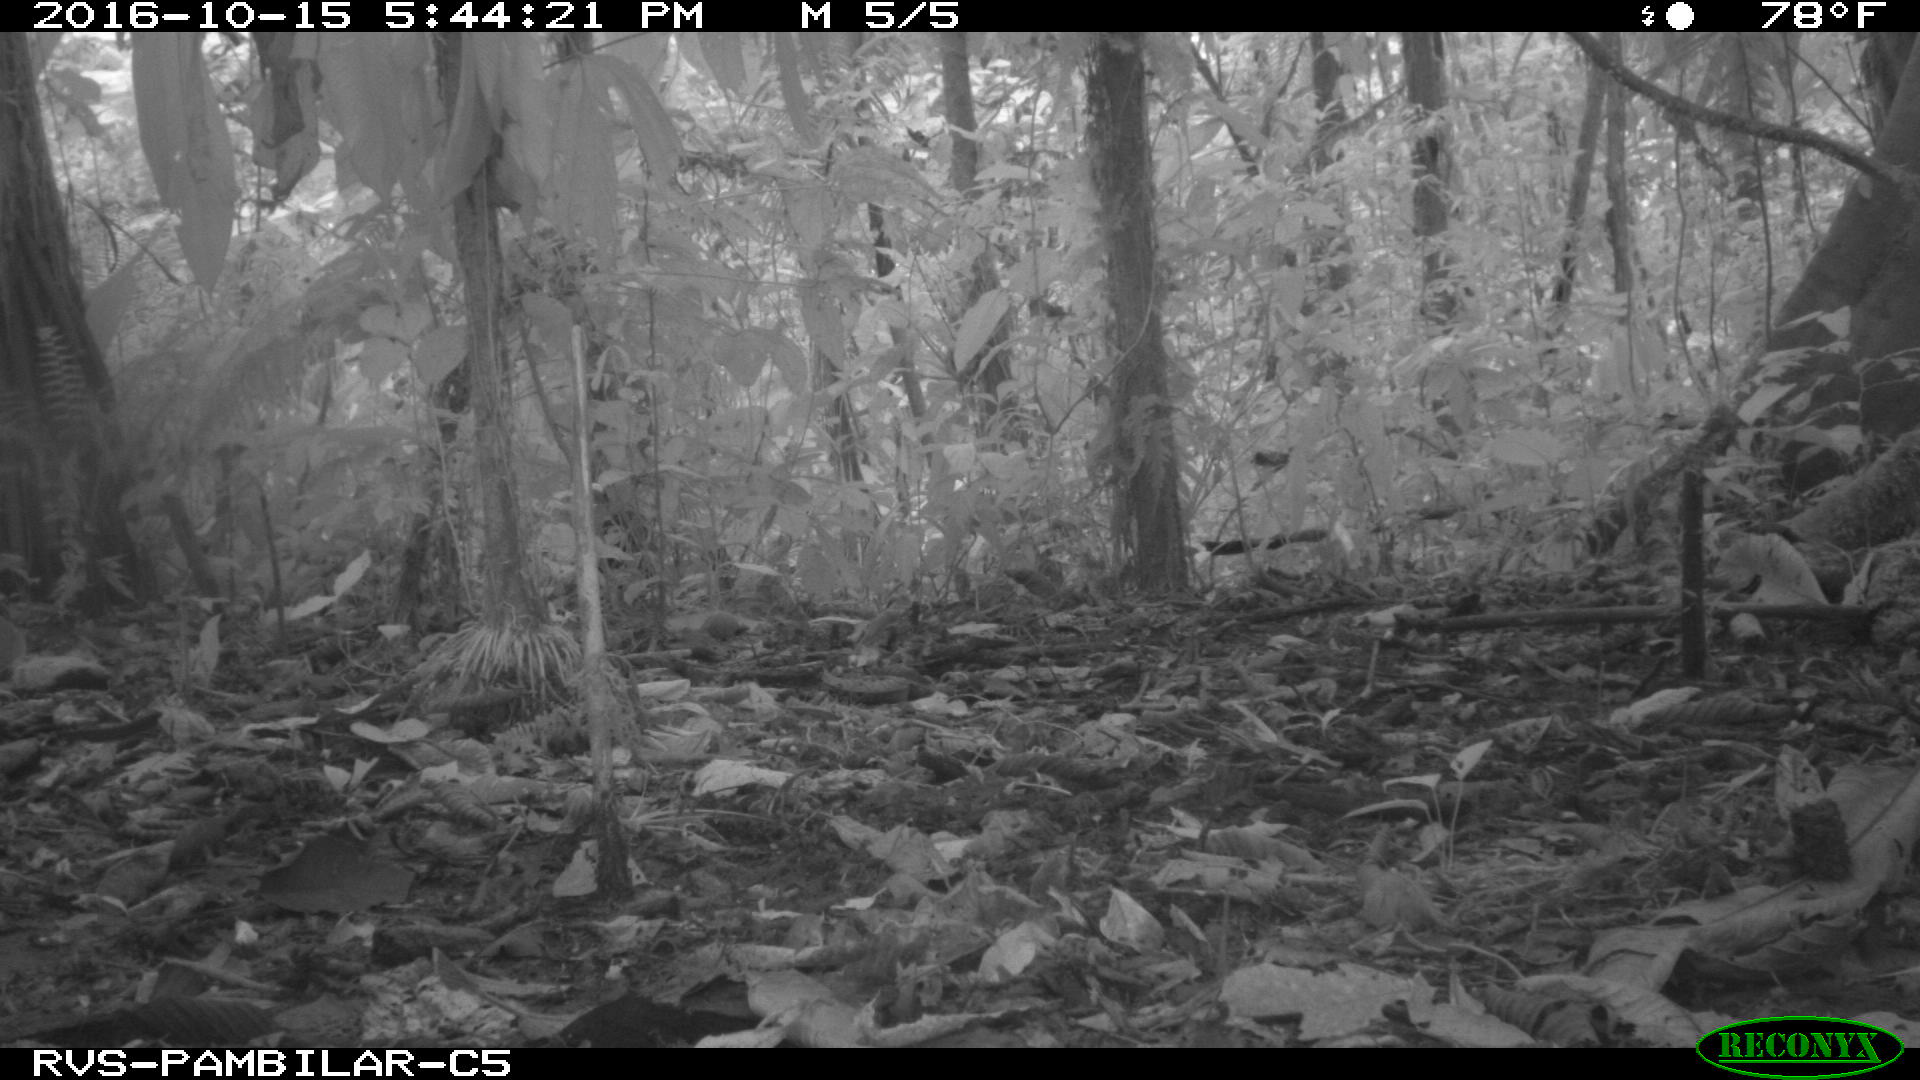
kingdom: Animalia
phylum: Chordata
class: Mammalia
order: Rodentia
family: Dasyproctidae
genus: Dasyprocta
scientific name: Dasyprocta punctata
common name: Central american agouti
